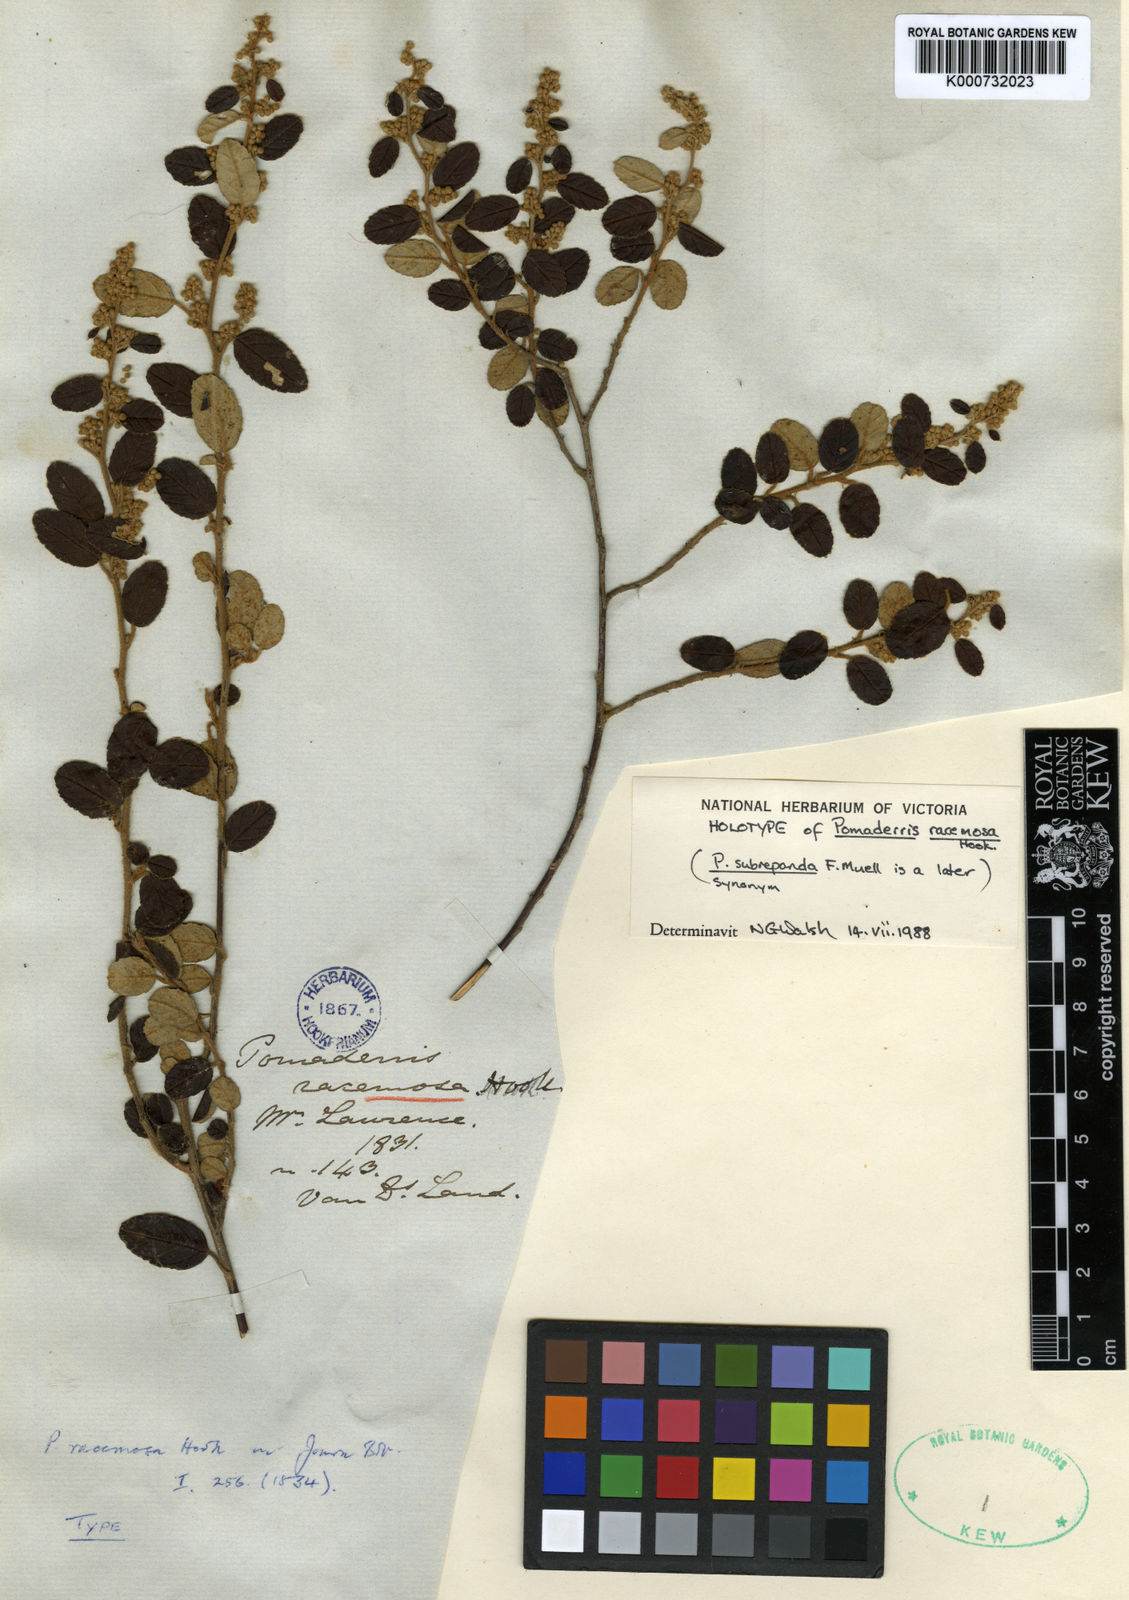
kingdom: Plantae
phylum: Tracheophyta
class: Magnoliopsida
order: Rosales
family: Rhamnaceae
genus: Pomaderris
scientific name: Pomaderris racemosa
